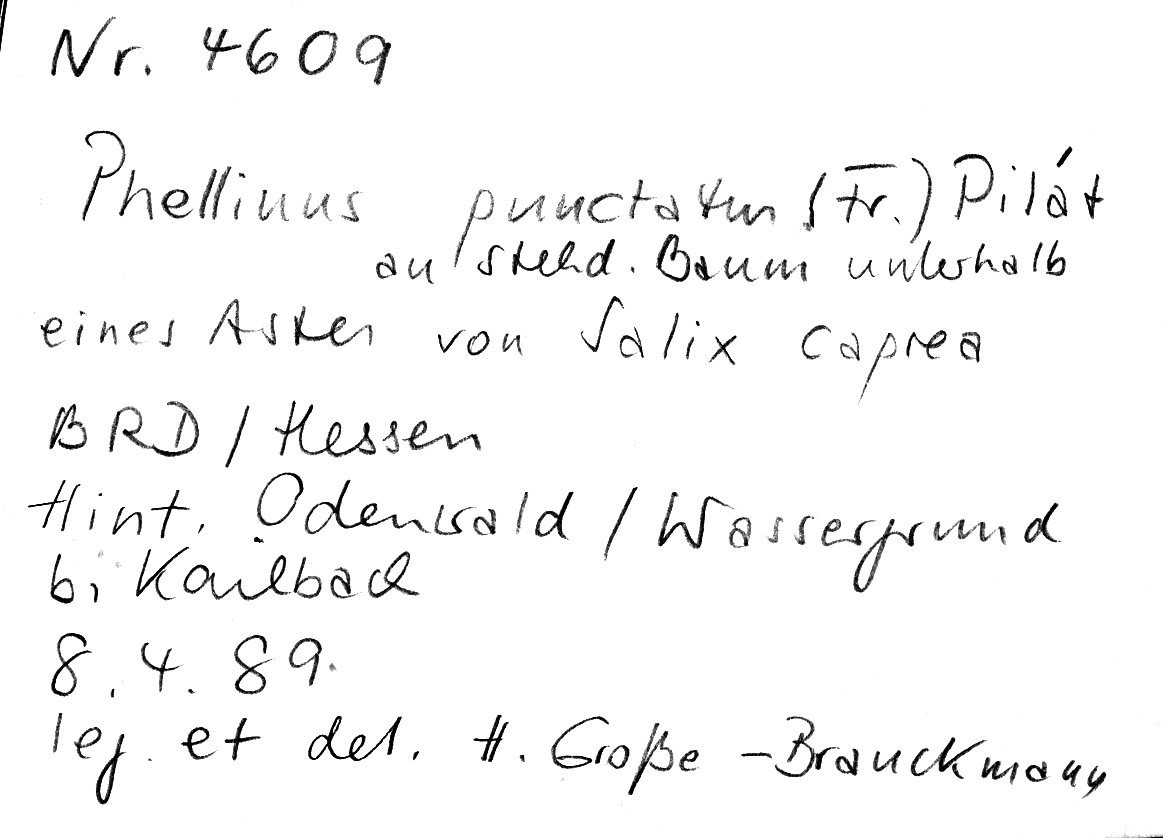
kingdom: Fungi
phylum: Basidiomycota
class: Agaricomycetes
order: Hymenochaetales
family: Hymenochaetaceae
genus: Fomitiporia
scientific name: Fomitiporia punctata
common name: Elbowpatch crust
